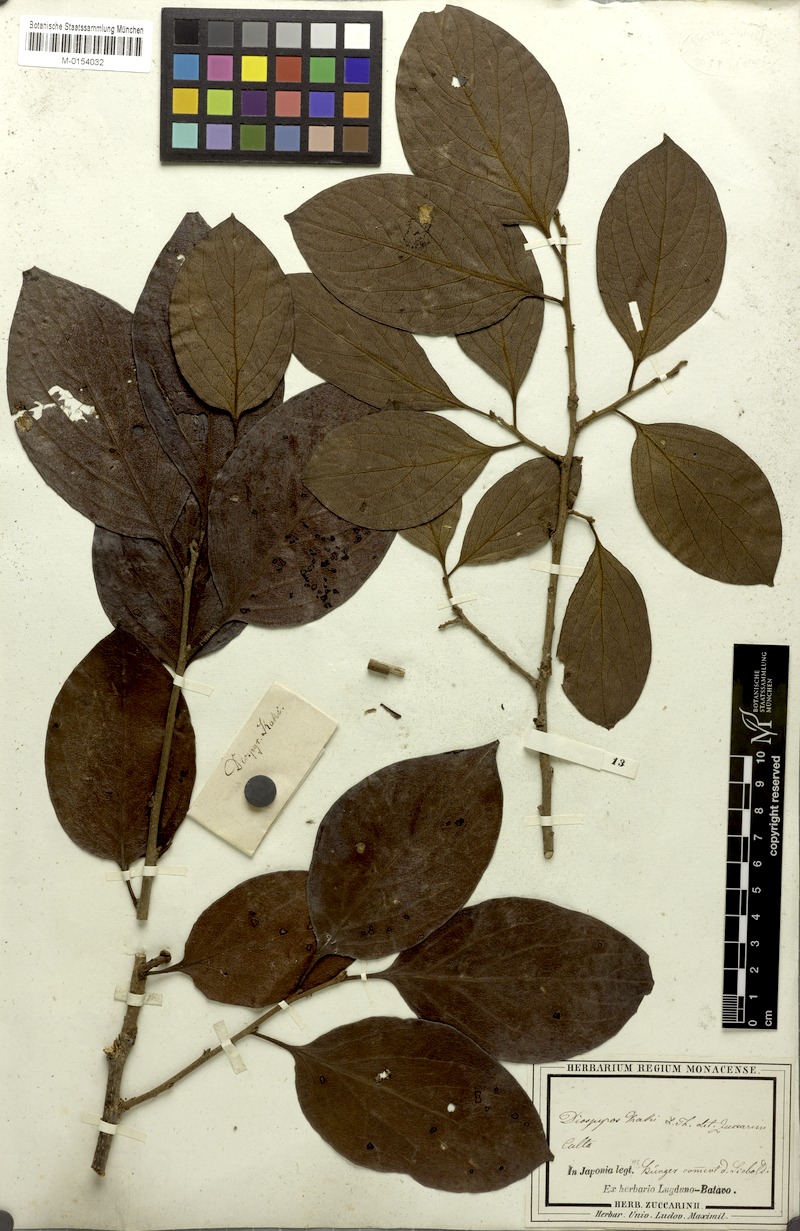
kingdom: Plantae
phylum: Tracheophyta
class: Magnoliopsida
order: Ericales
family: Ebenaceae
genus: Diospyros
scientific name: Diospyros kaki
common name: Persimmon
